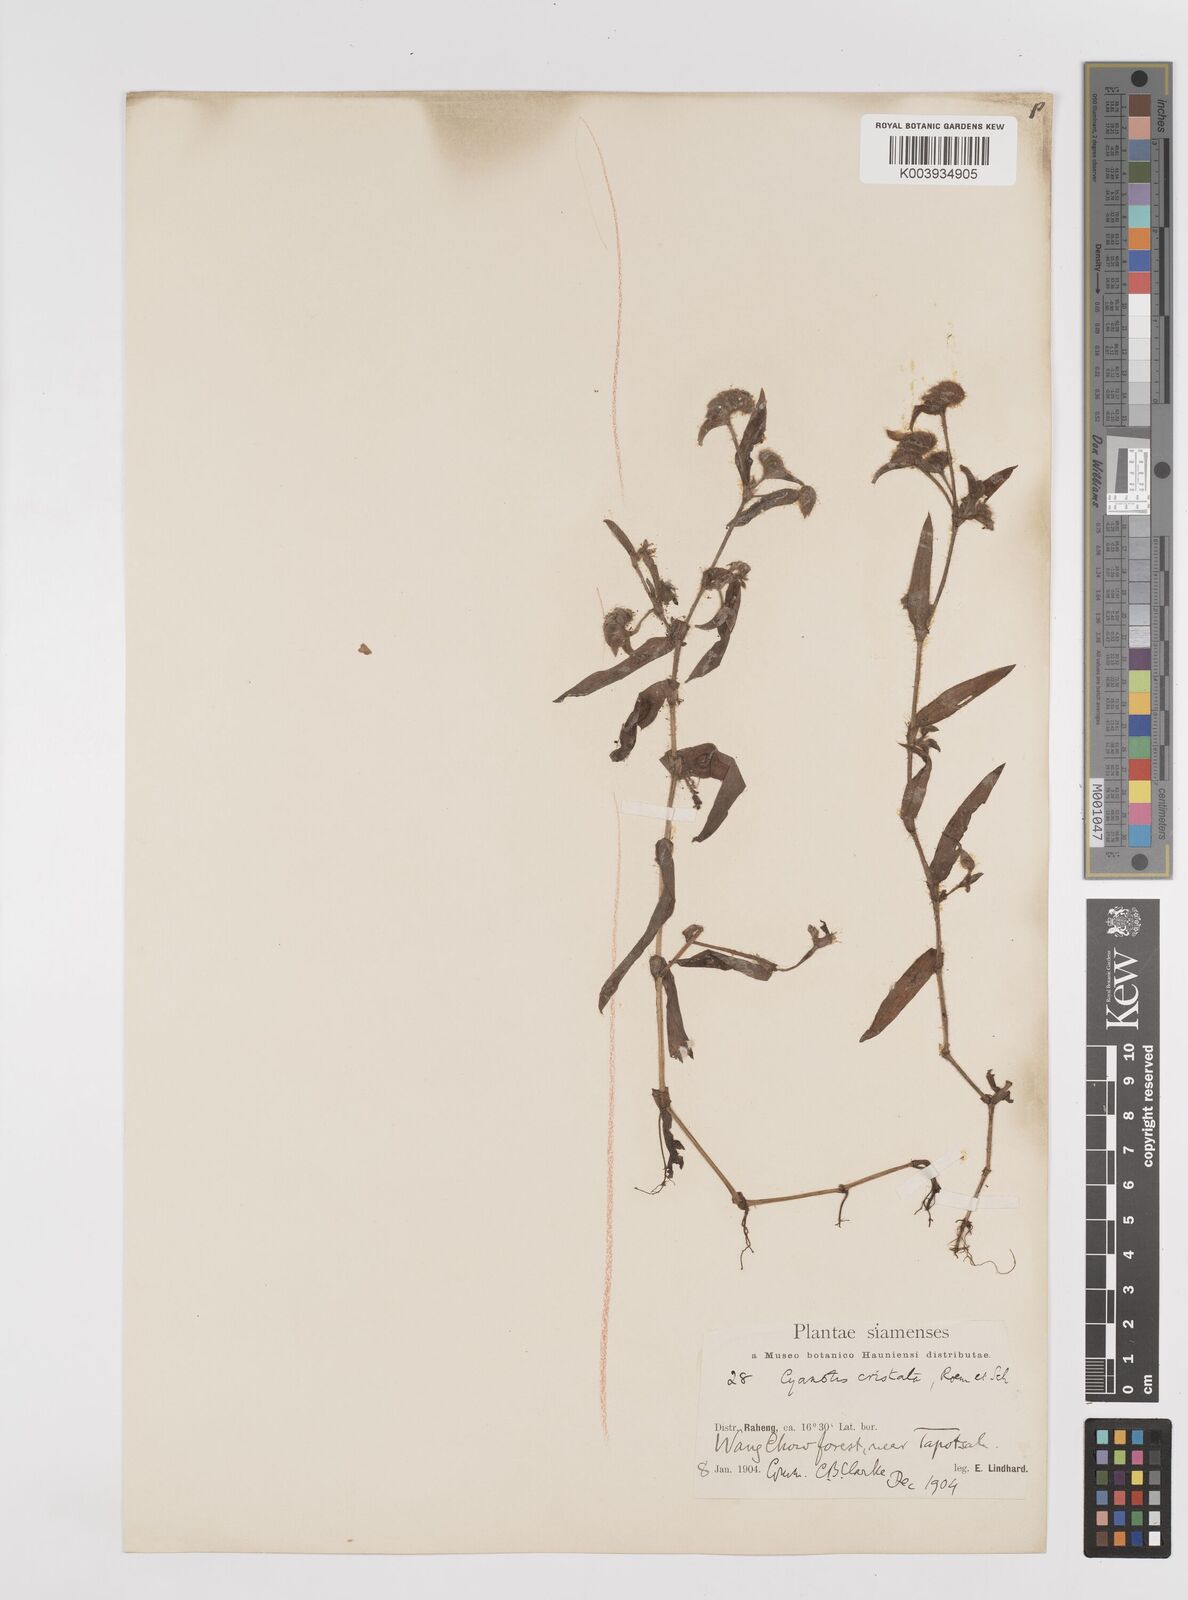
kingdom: Plantae
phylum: Tracheophyta
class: Liliopsida
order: Commelinales
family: Commelinaceae
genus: Cyanotis
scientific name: Cyanotis cristata
